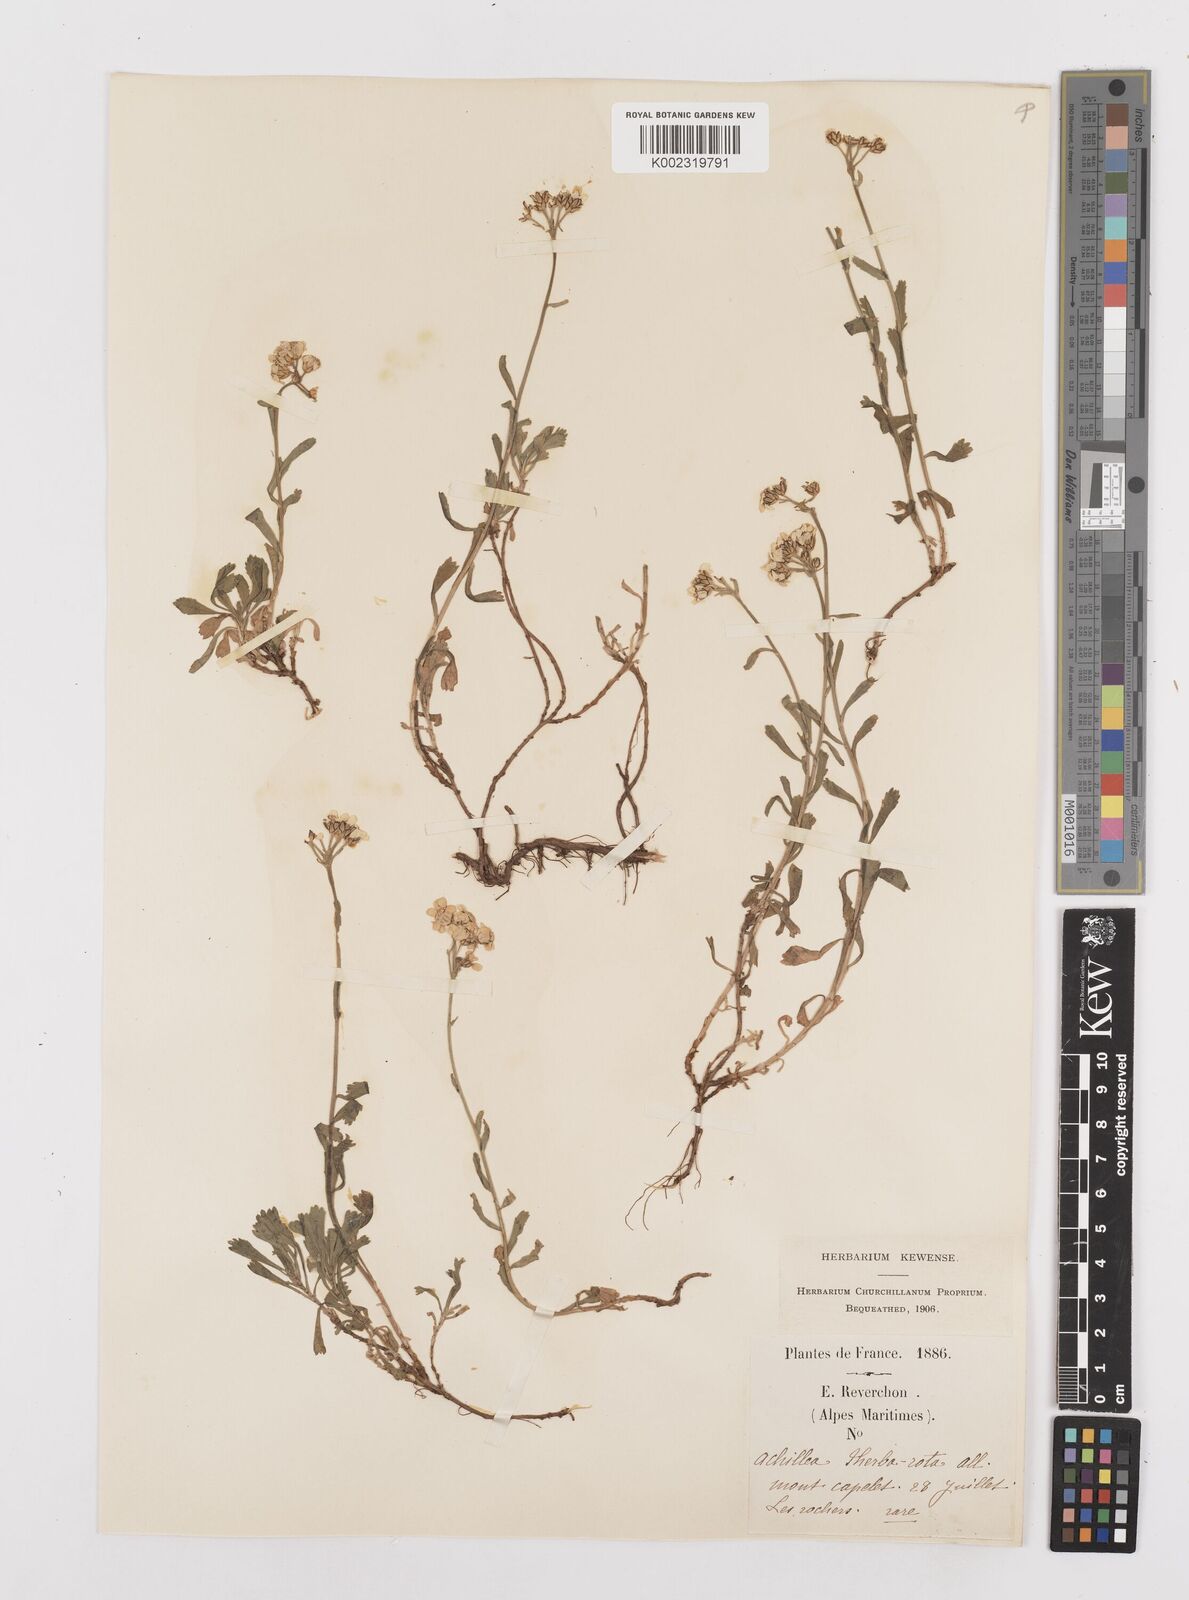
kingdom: Plantae
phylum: Tracheophyta
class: Magnoliopsida
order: Asterales
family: Asteraceae
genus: Achillea
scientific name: Achillea erba-rotta
